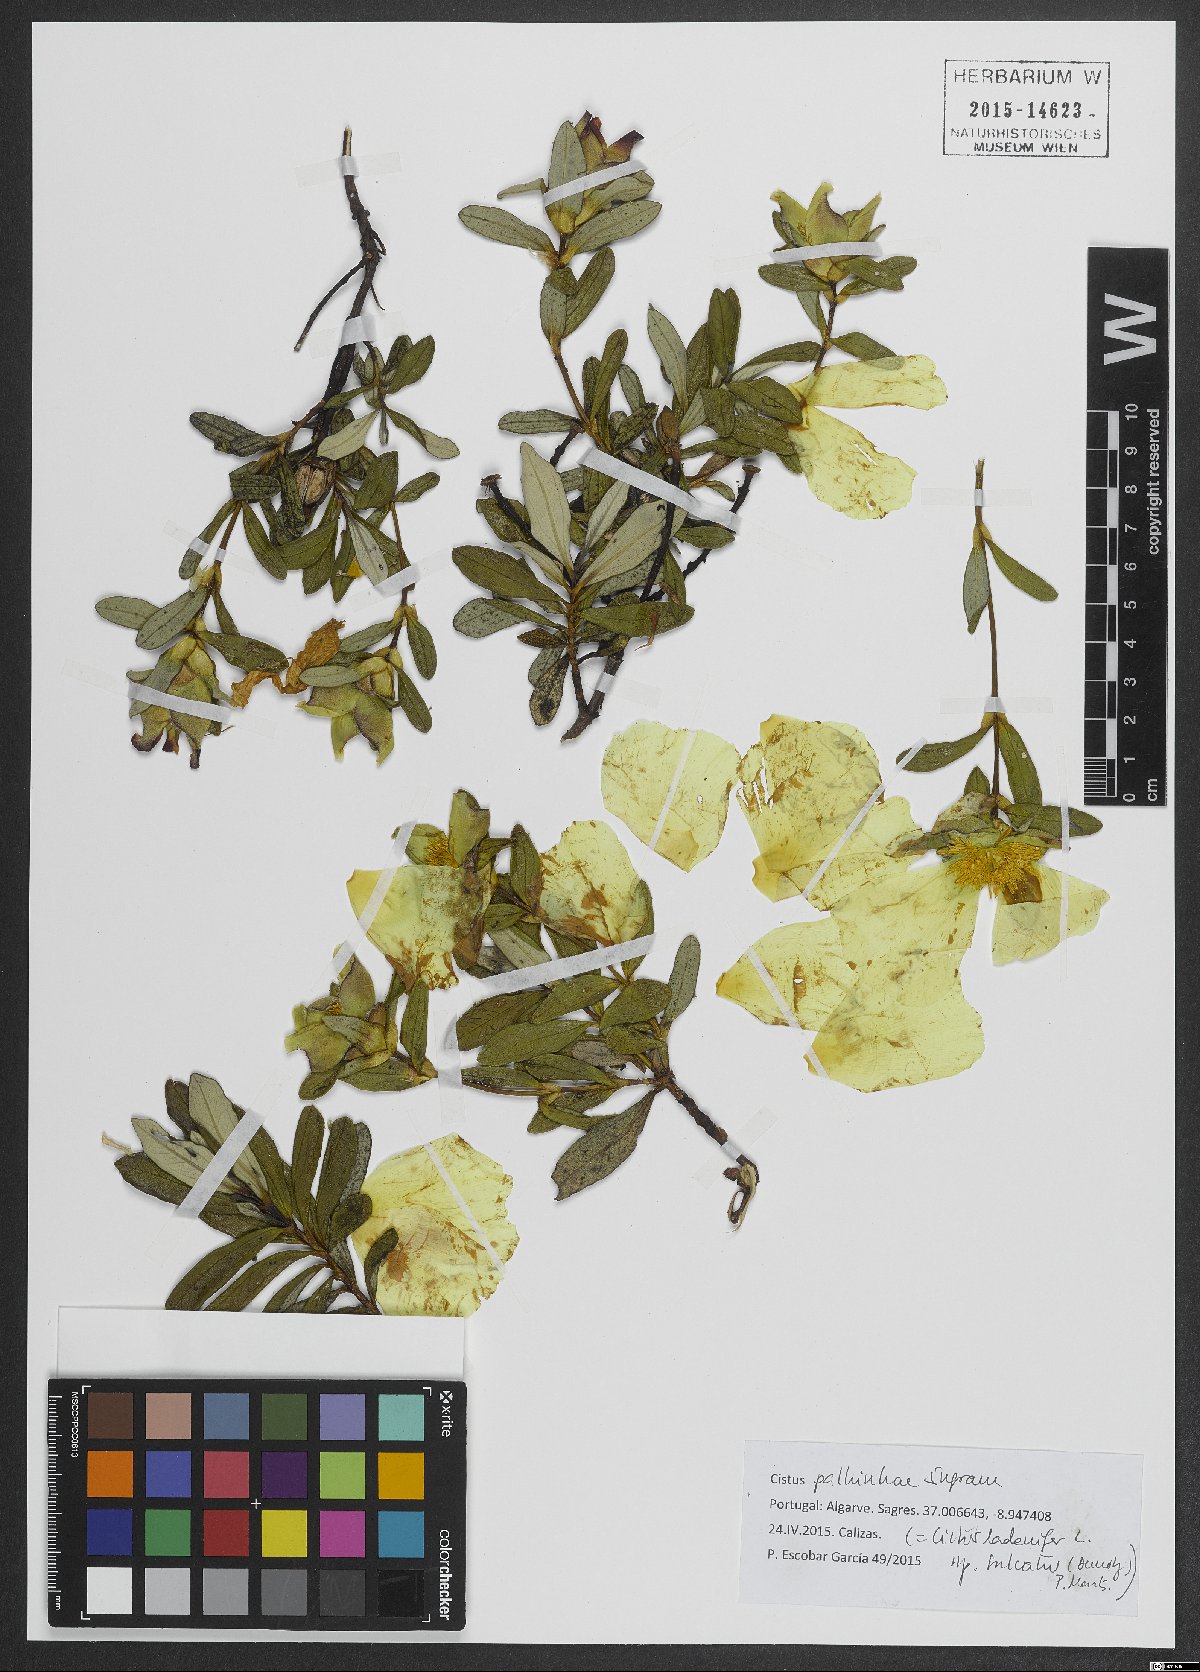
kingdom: Plantae
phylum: Tracheophyta
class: Magnoliopsida
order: Malvales
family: Cistaceae
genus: Cistus
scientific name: Cistus ladanifer
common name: Common gum cistus
